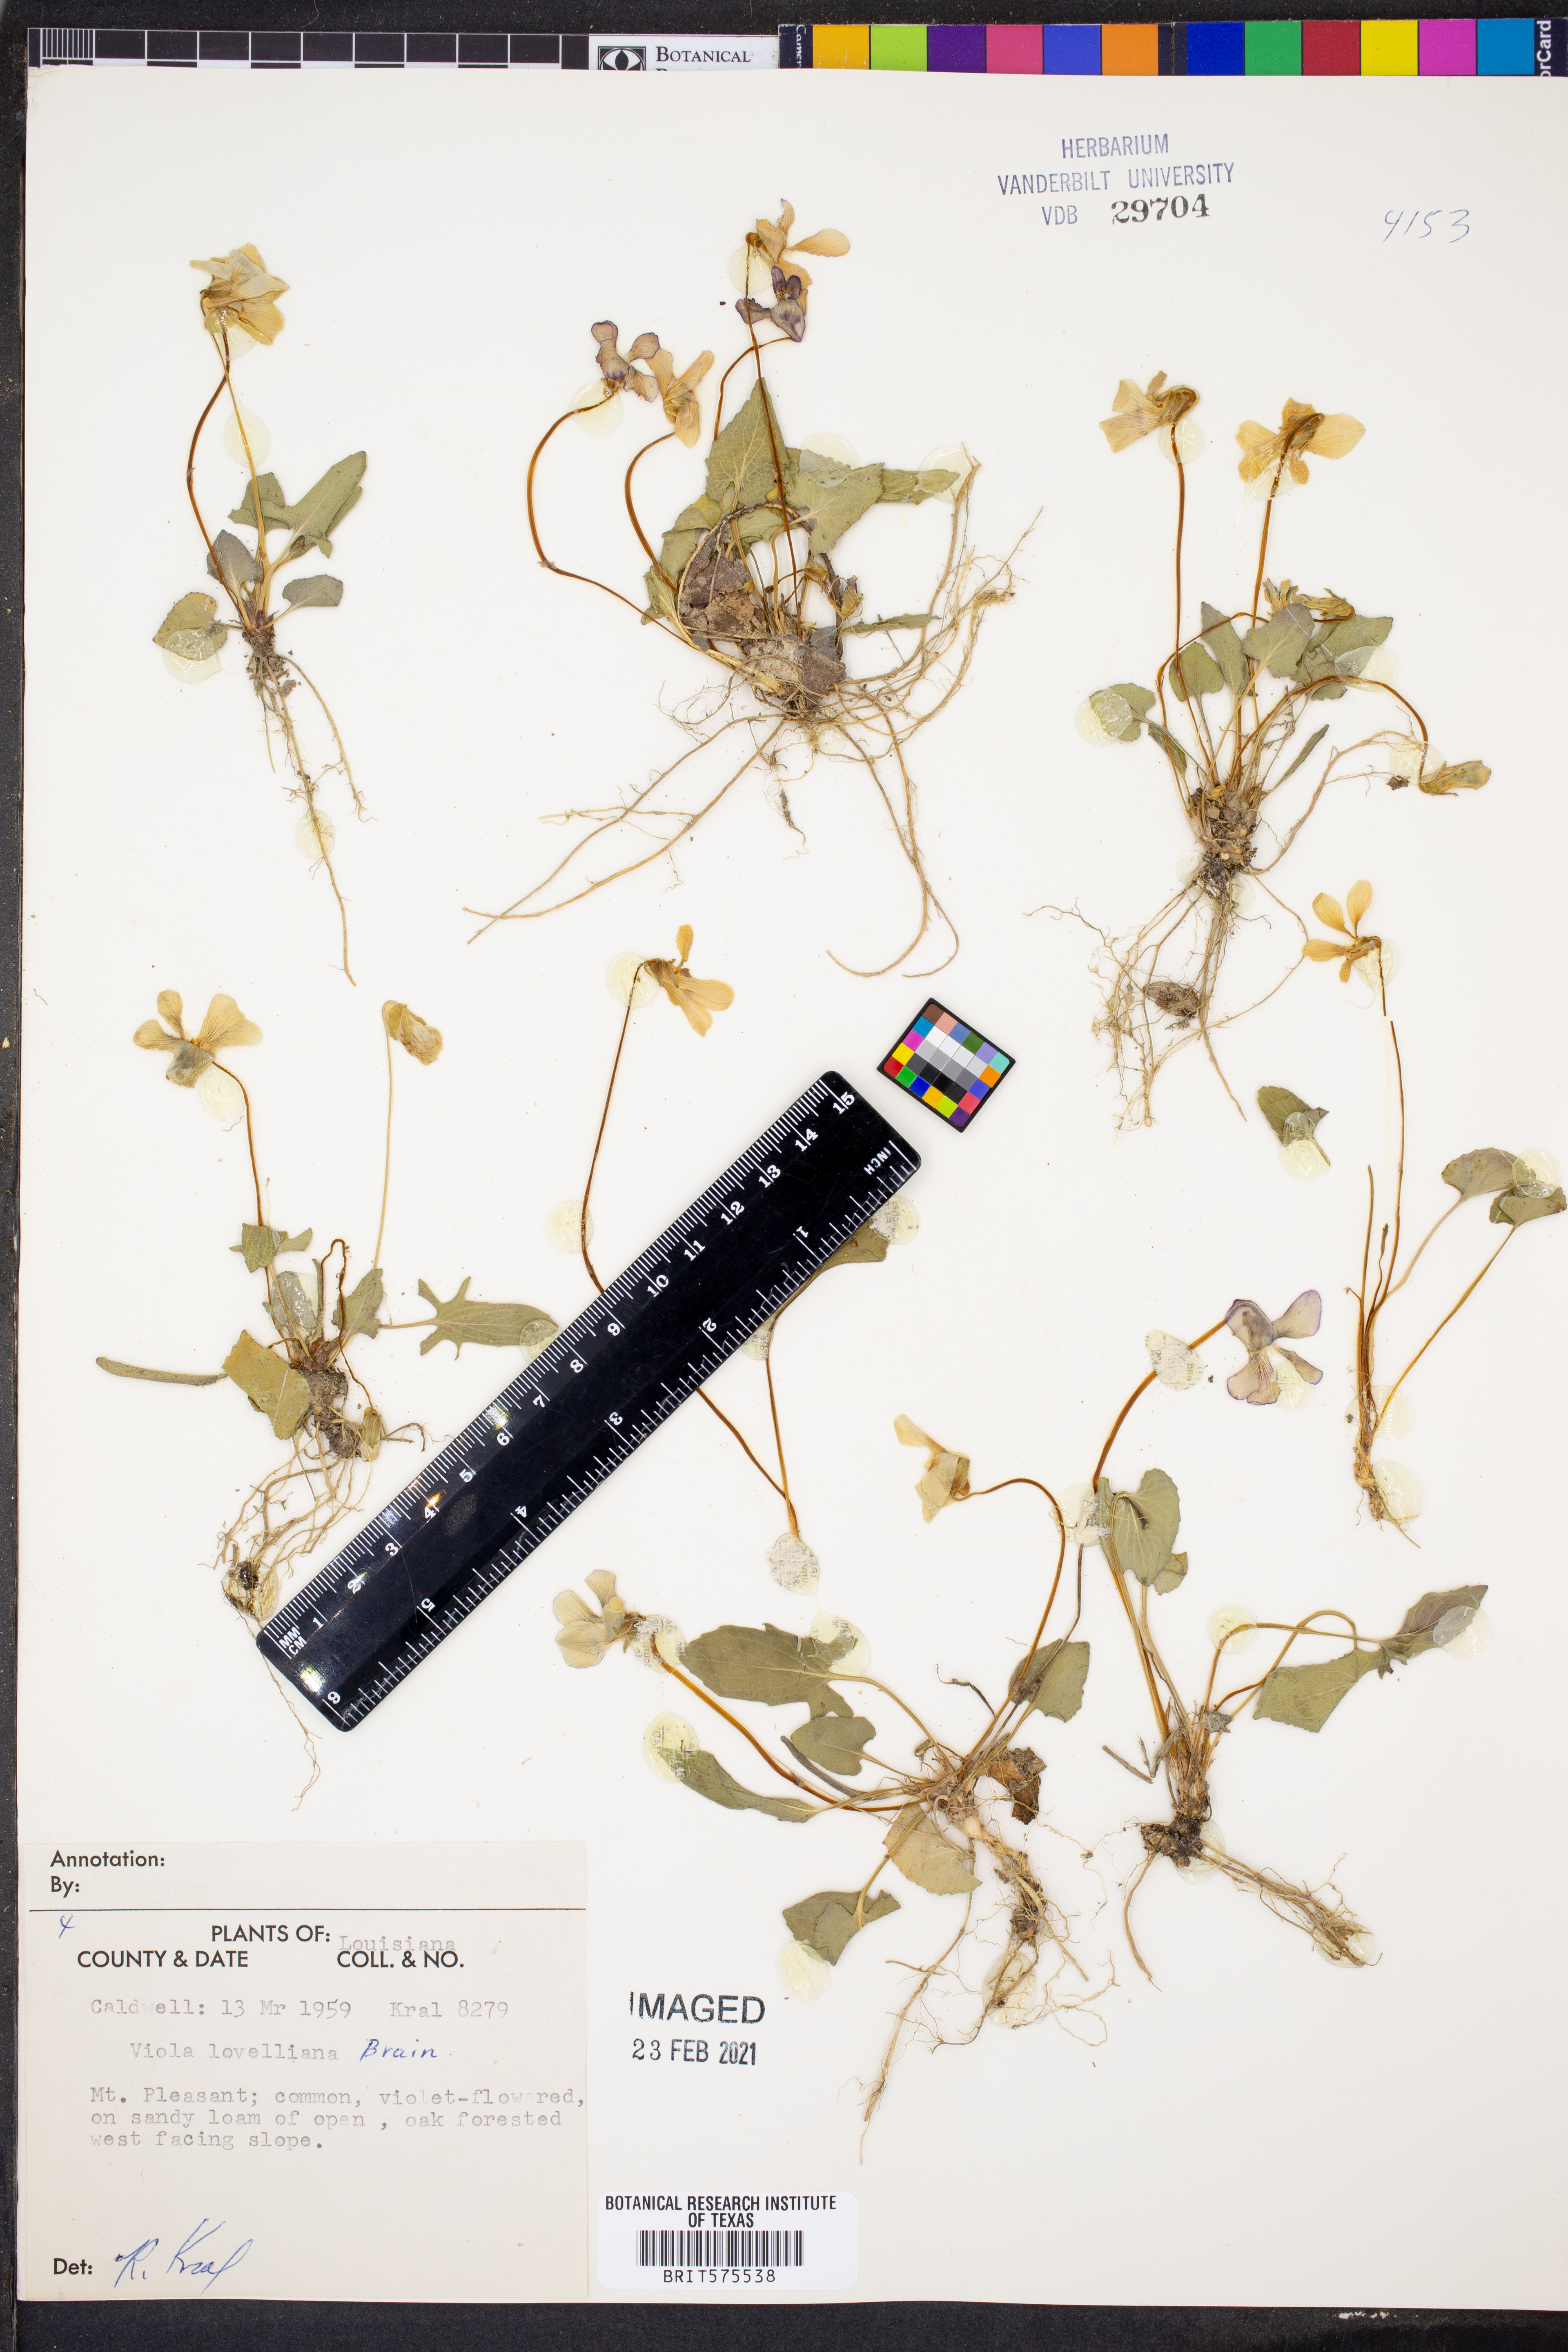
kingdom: Plantae
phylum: Tracheophyta
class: Magnoliopsida
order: Malpighiales
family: Violaceae
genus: Viola
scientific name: Viola lovelliana
